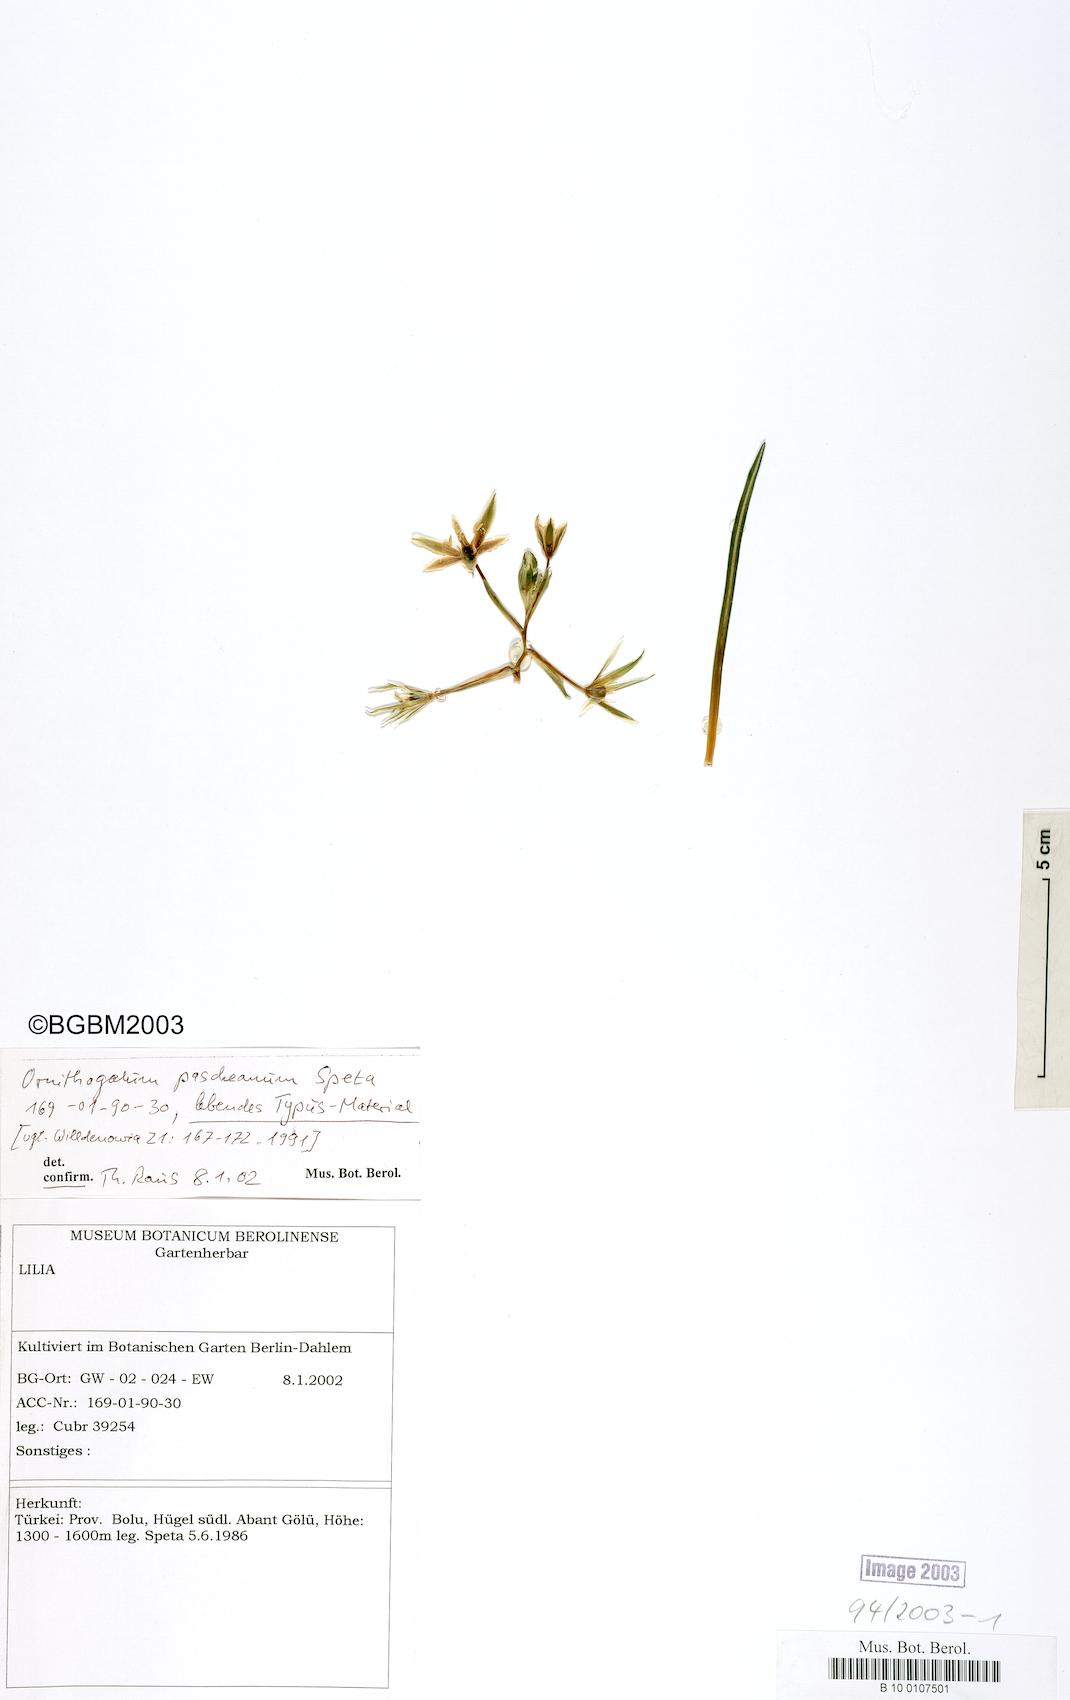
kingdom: Plantae
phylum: Tracheophyta
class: Liliopsida
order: Asparagales
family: Asparagaceae
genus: Ornithogalum
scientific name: Ornithogalum pascheanum
